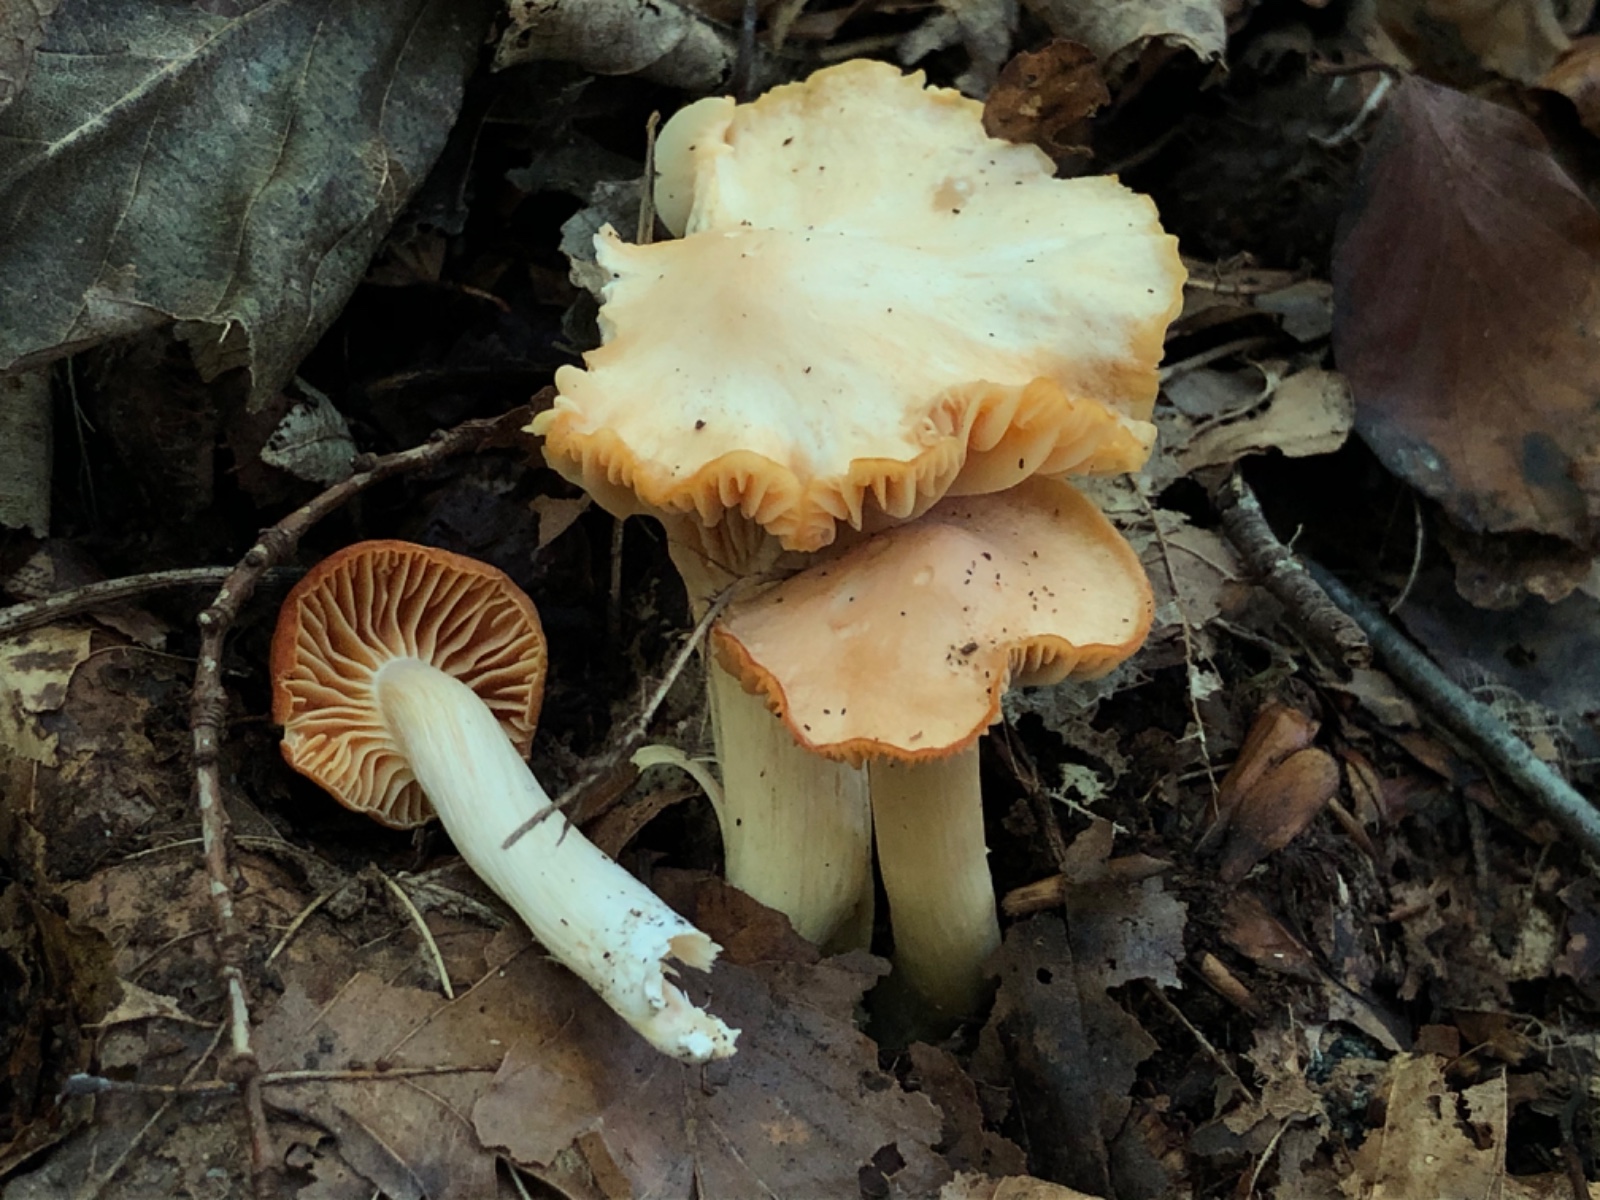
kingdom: Fungi
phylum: Basidiomycota
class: Agaricomycetes
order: Agaricales
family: Hygrophoraceae
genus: Cuphophyllus
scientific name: Cuphophyllus pratensis
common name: eng-vokshat
